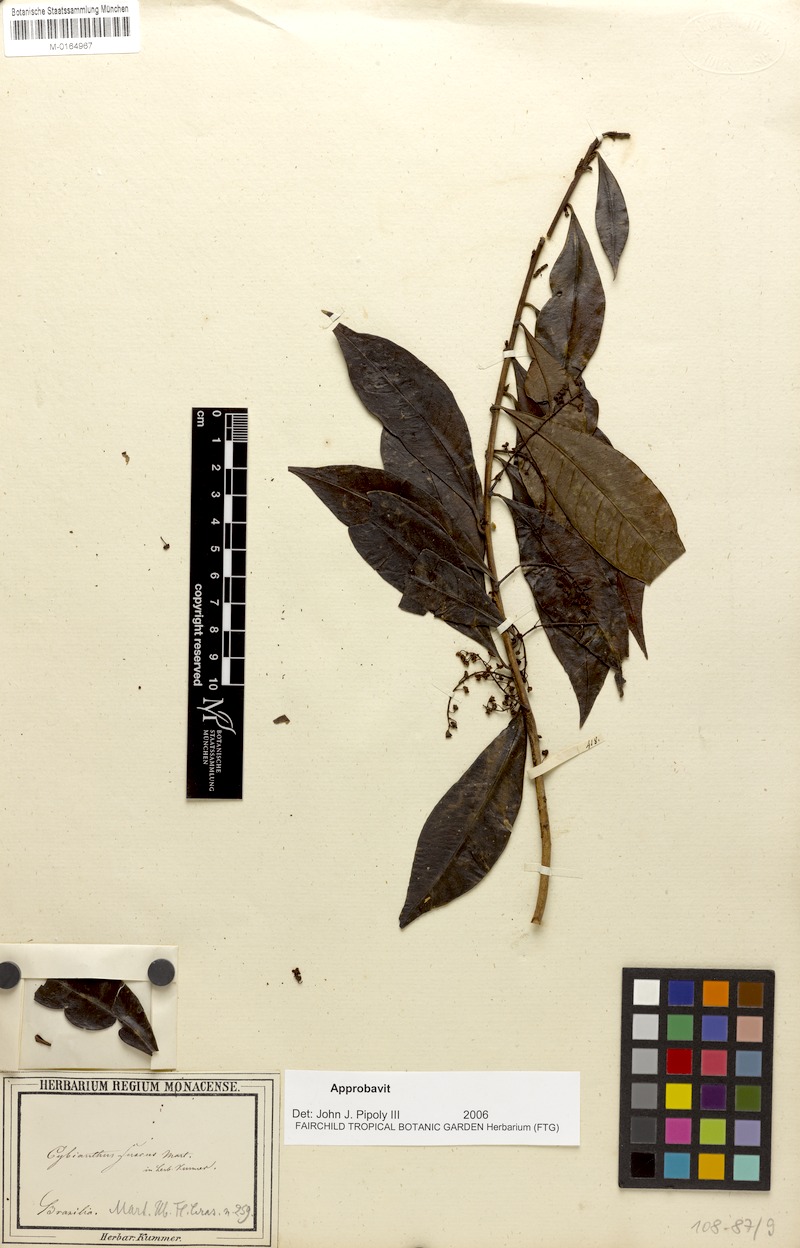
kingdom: Plantae
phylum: Tracheophyta
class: Magnoliopsida
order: Ericales
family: Primulaceae
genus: Cybianthus
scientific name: Cybianthus fuscus
